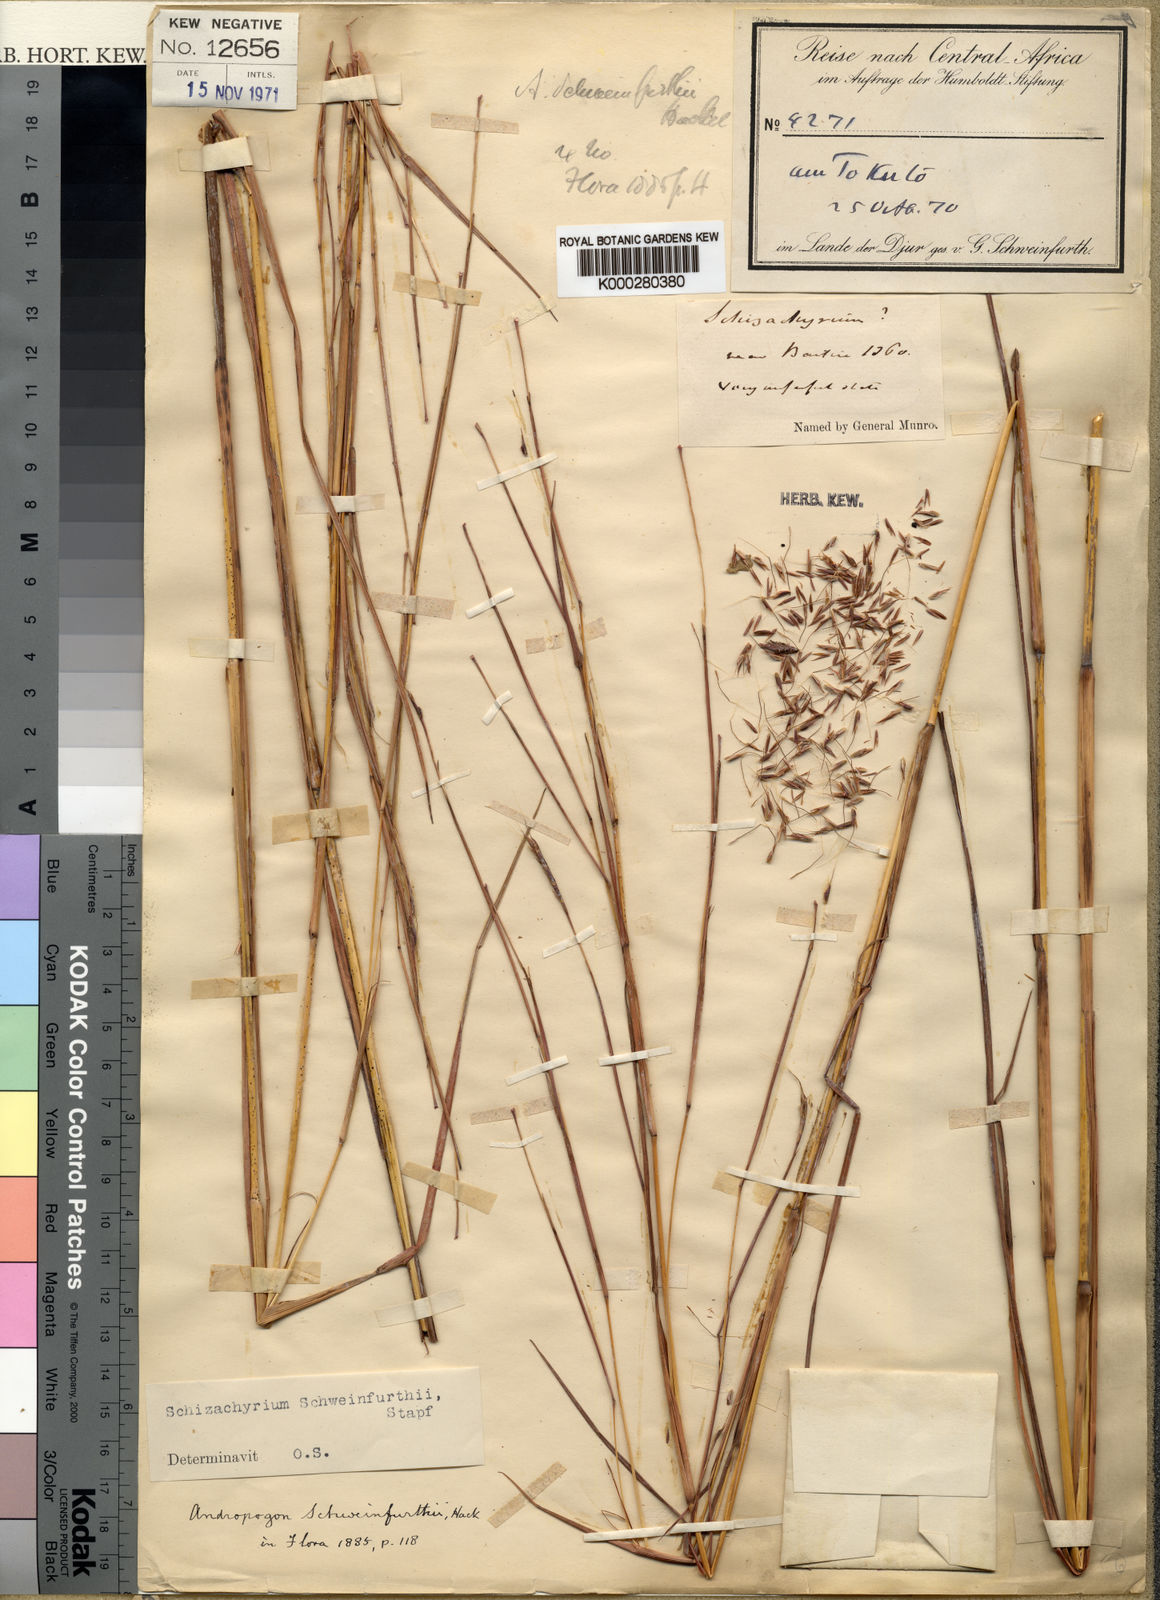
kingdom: Plantae
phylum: Tracheophyta
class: Liliopsida
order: Poales
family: Poaceae
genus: Schizachyrium
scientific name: Schizachyrium
